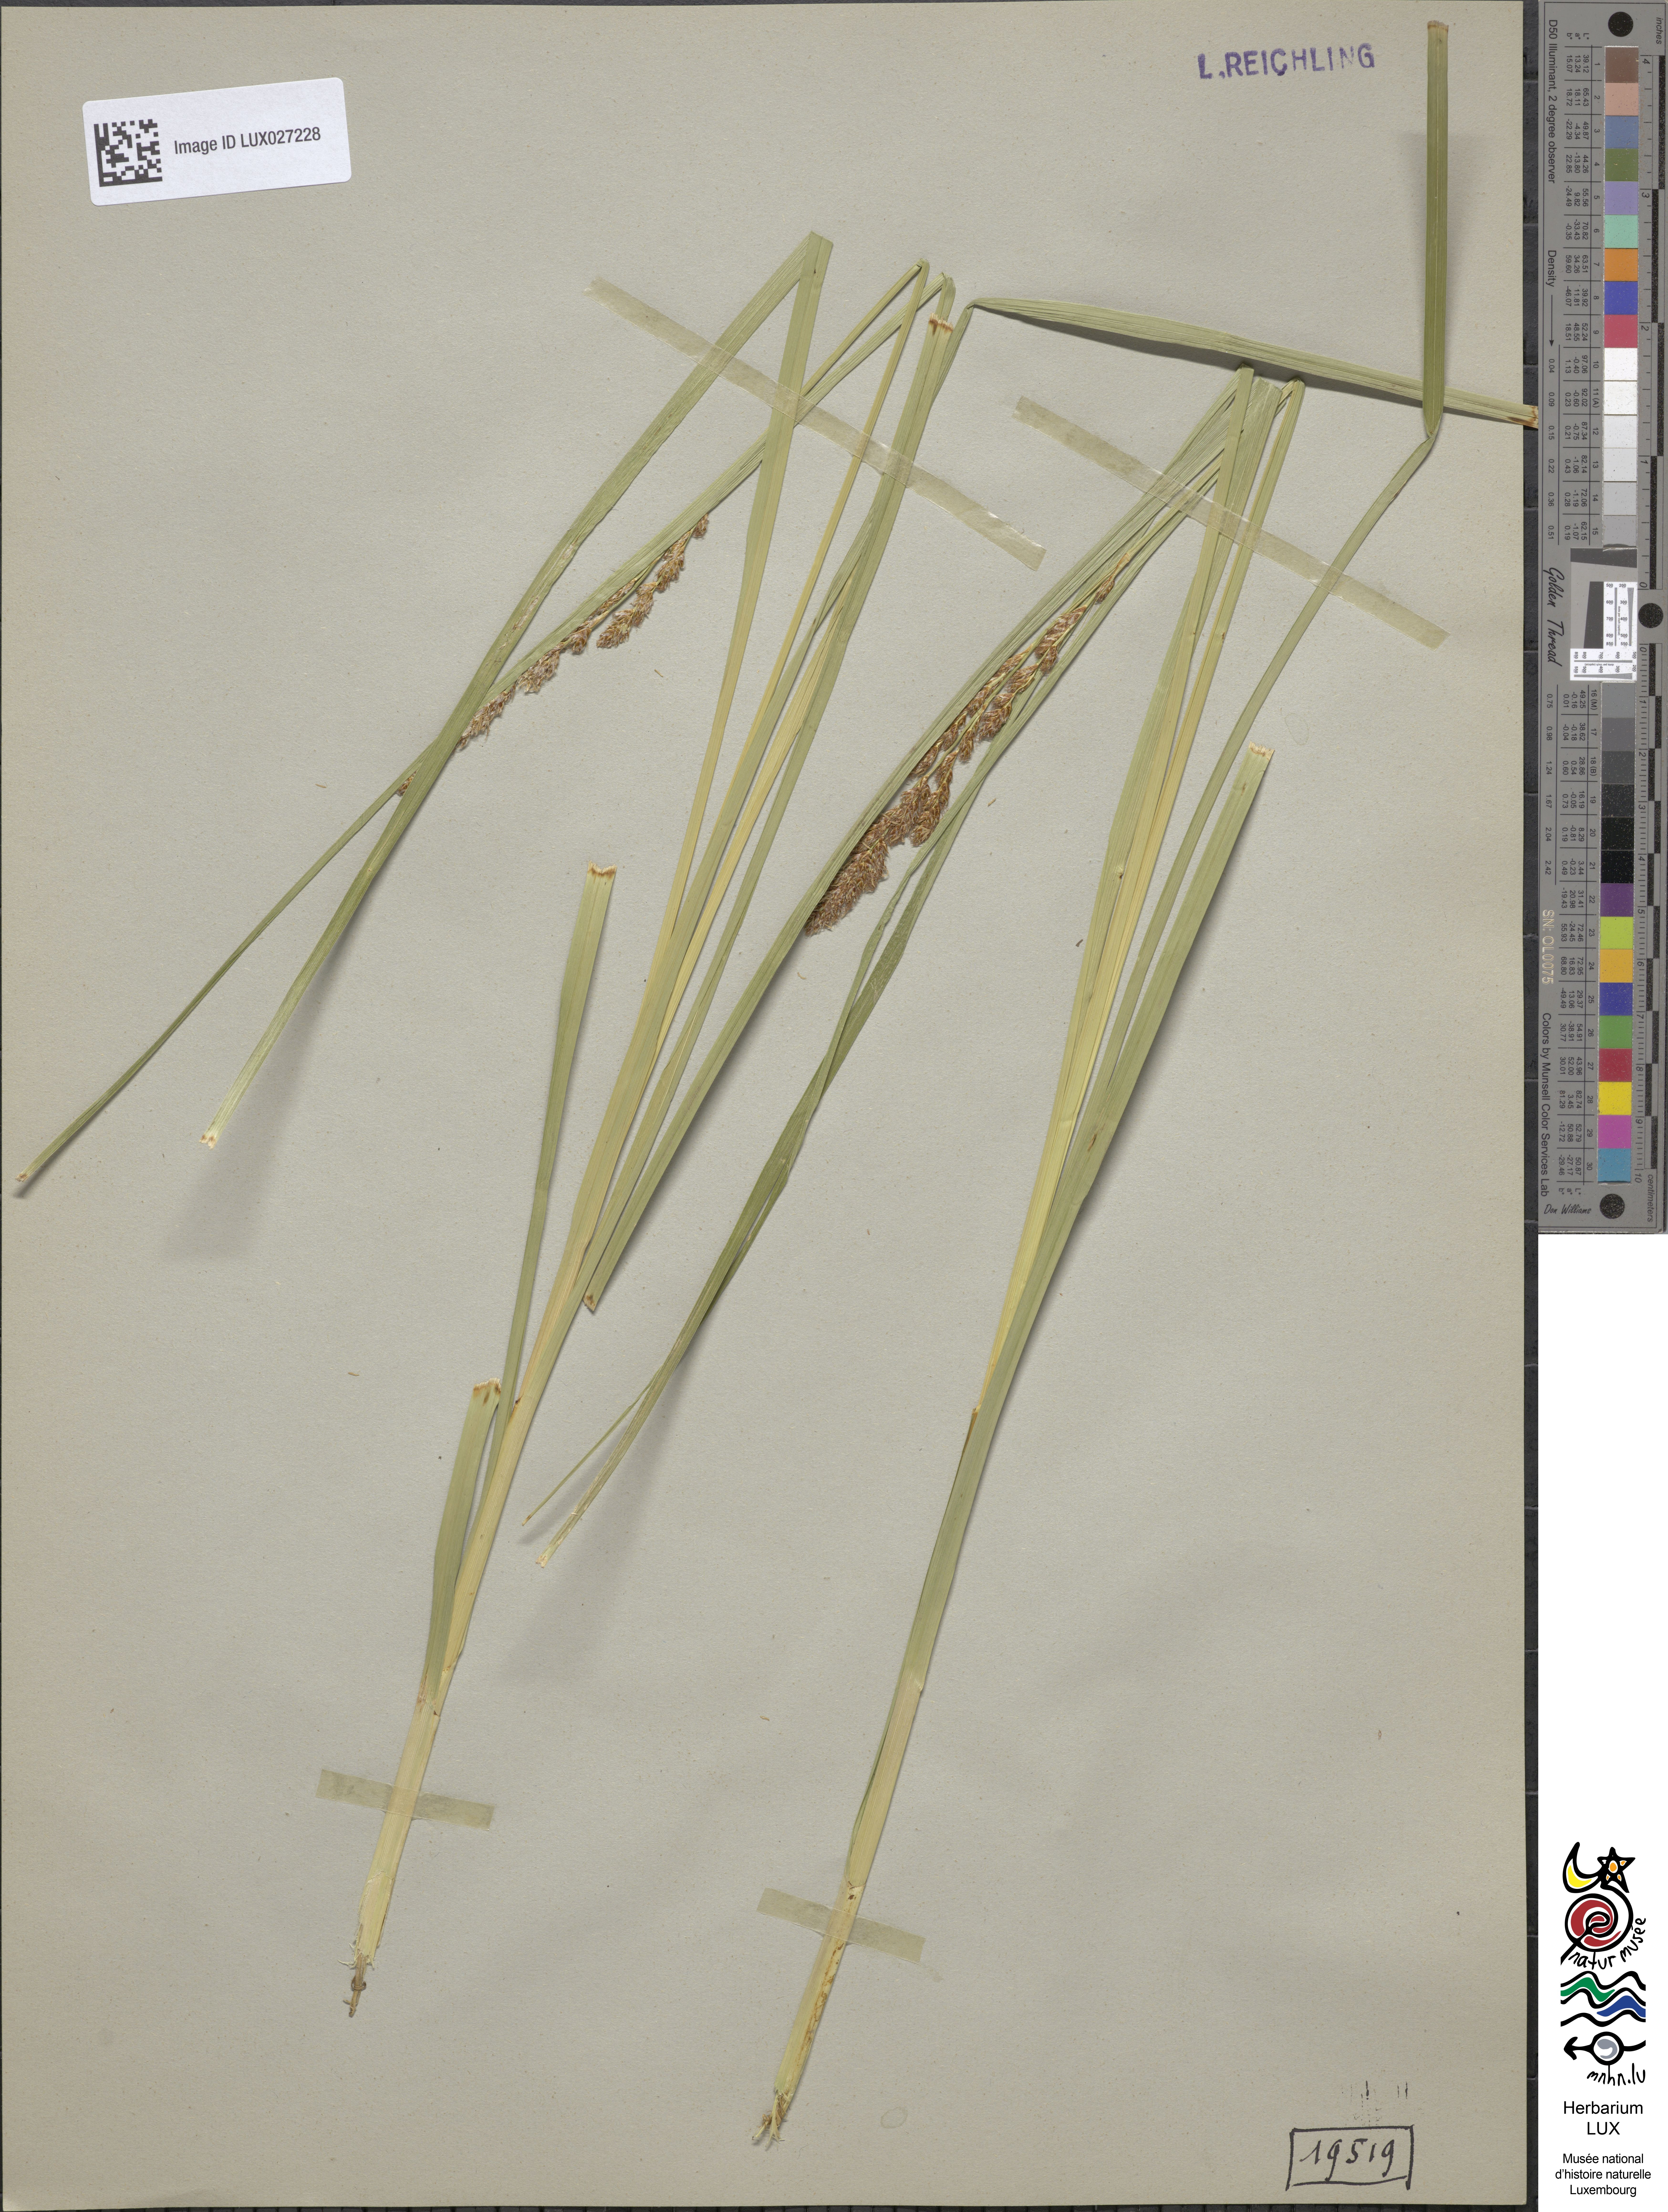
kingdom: Plantae
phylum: Tracheophyta
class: Liliopsida
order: Poales
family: Cyperaceae
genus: Carex
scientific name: Carex paniculata
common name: Greater tussock-sedge
